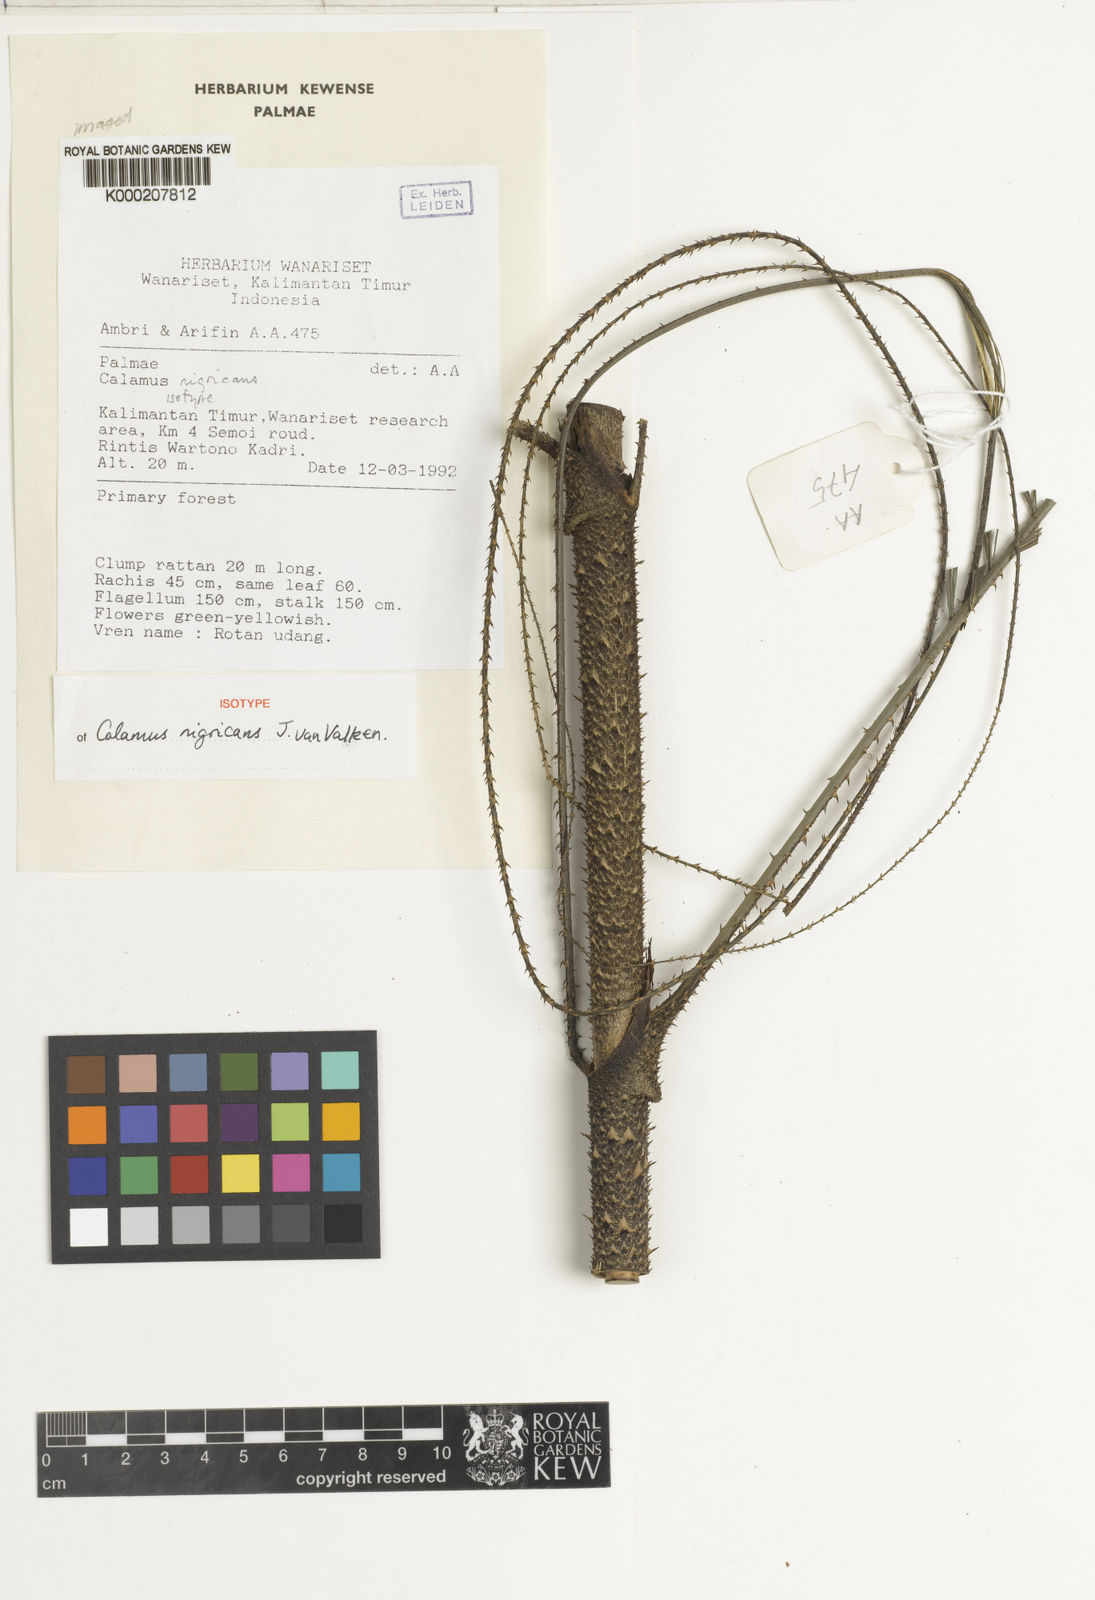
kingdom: Plantae
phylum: Tracheophyta
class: Liliopsida
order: Arecales
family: Arecaceae
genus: Calamus
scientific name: Calamus spinulinervis
